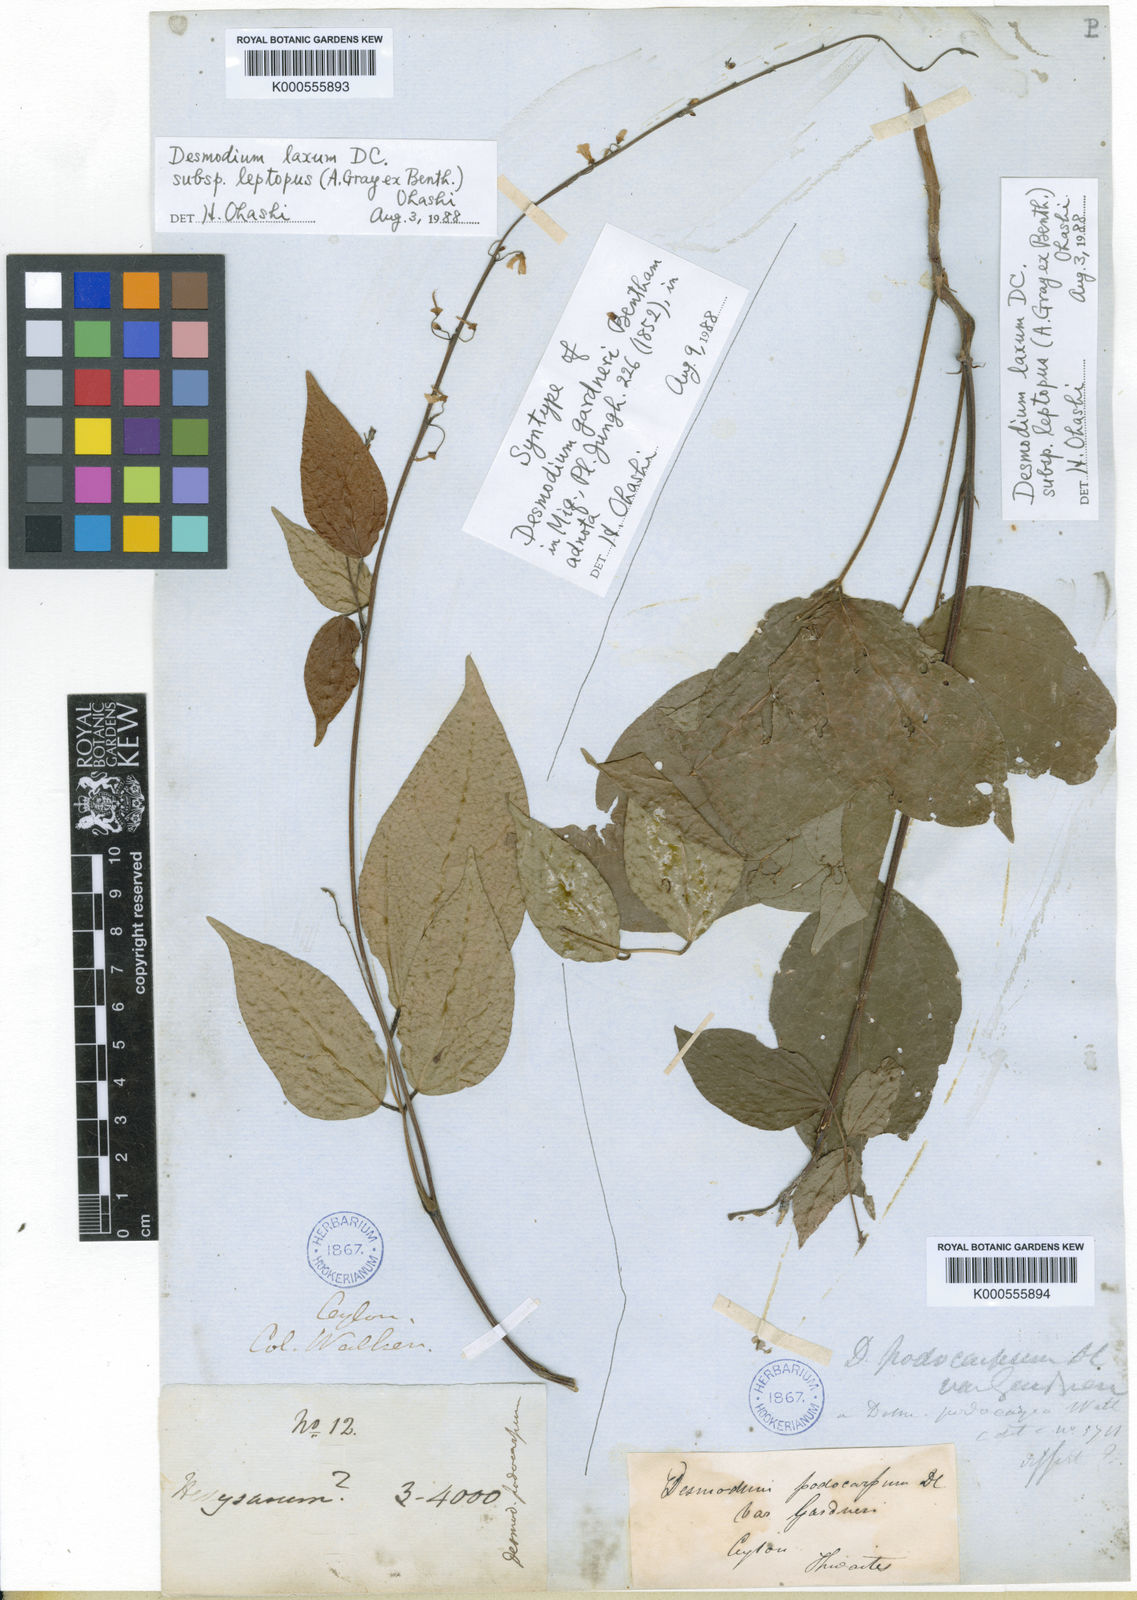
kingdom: Plantae
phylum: Tracheophyta
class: Magnoliopsida
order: Fabales
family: Fabaceae
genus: Hylodesmum
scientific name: Hylodesmum leptopus
